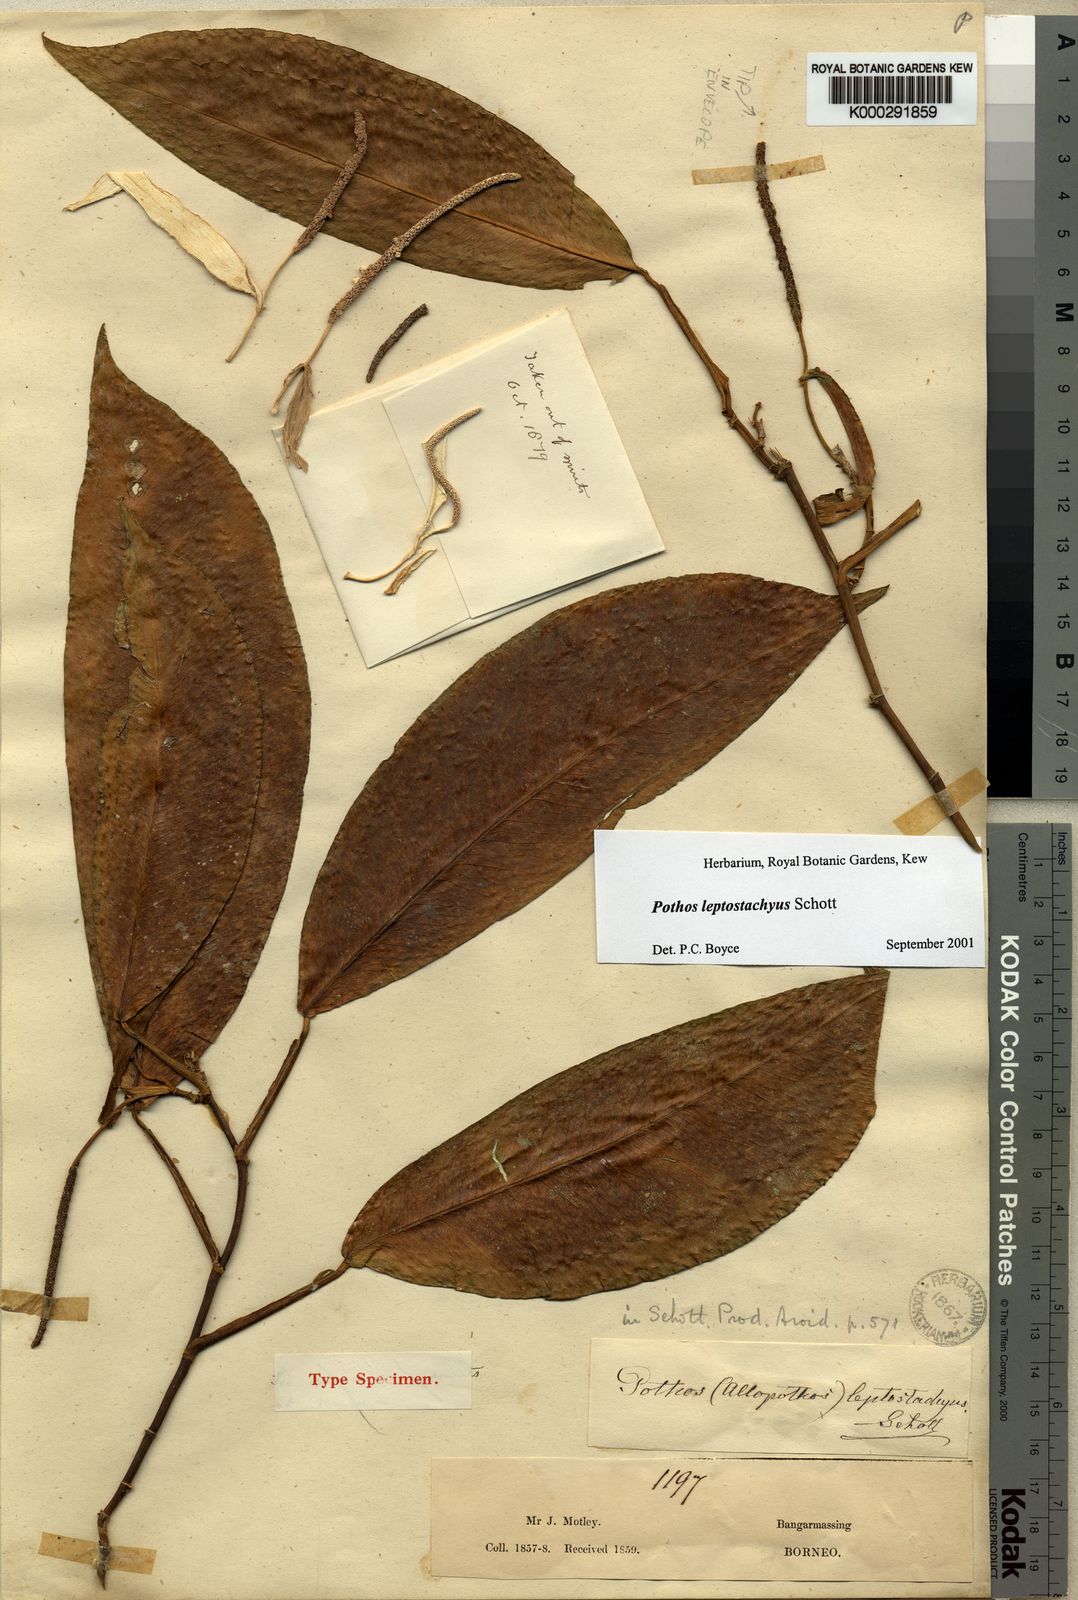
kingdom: Plantae
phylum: Tracheophyta
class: Liliopsida
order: Alismatales
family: Araceae
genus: Pothos
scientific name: Pothos leptostachyus
